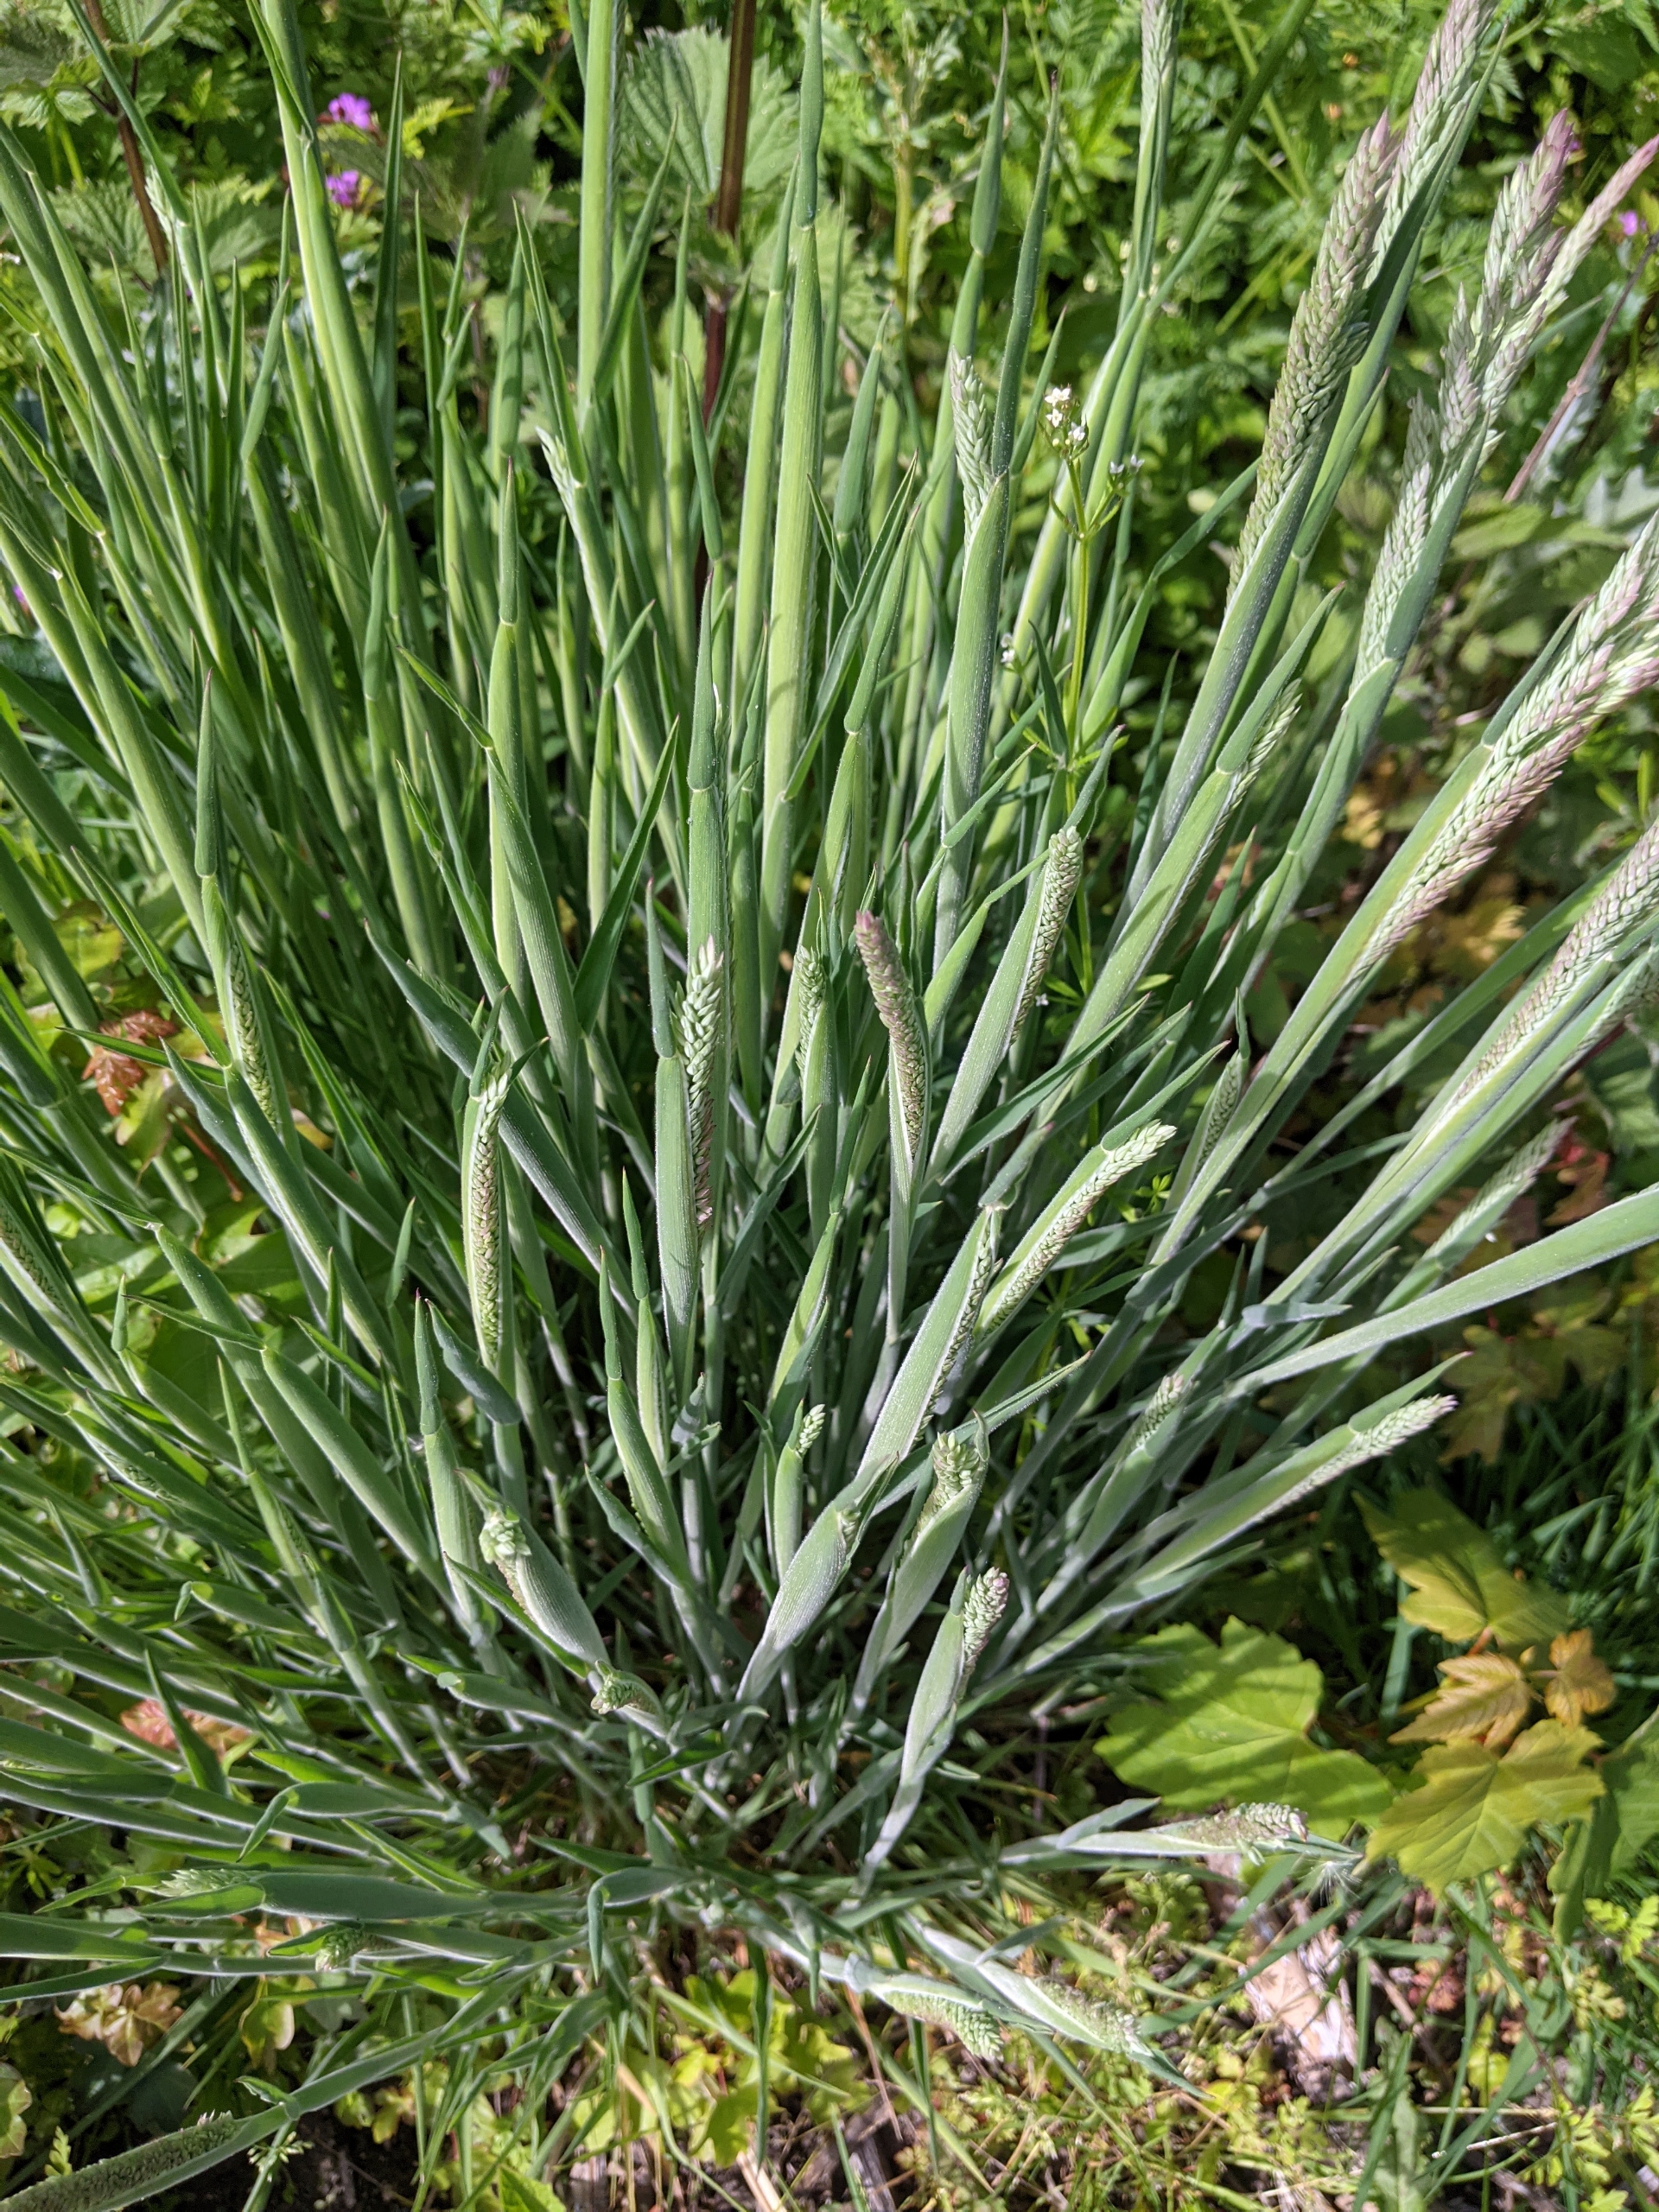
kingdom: Plantae
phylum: Tracheophyta
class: Liliopsida
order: Poales
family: Poaceae
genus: Holcus
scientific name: Holcus lanatus
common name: Fløjlsgræs
